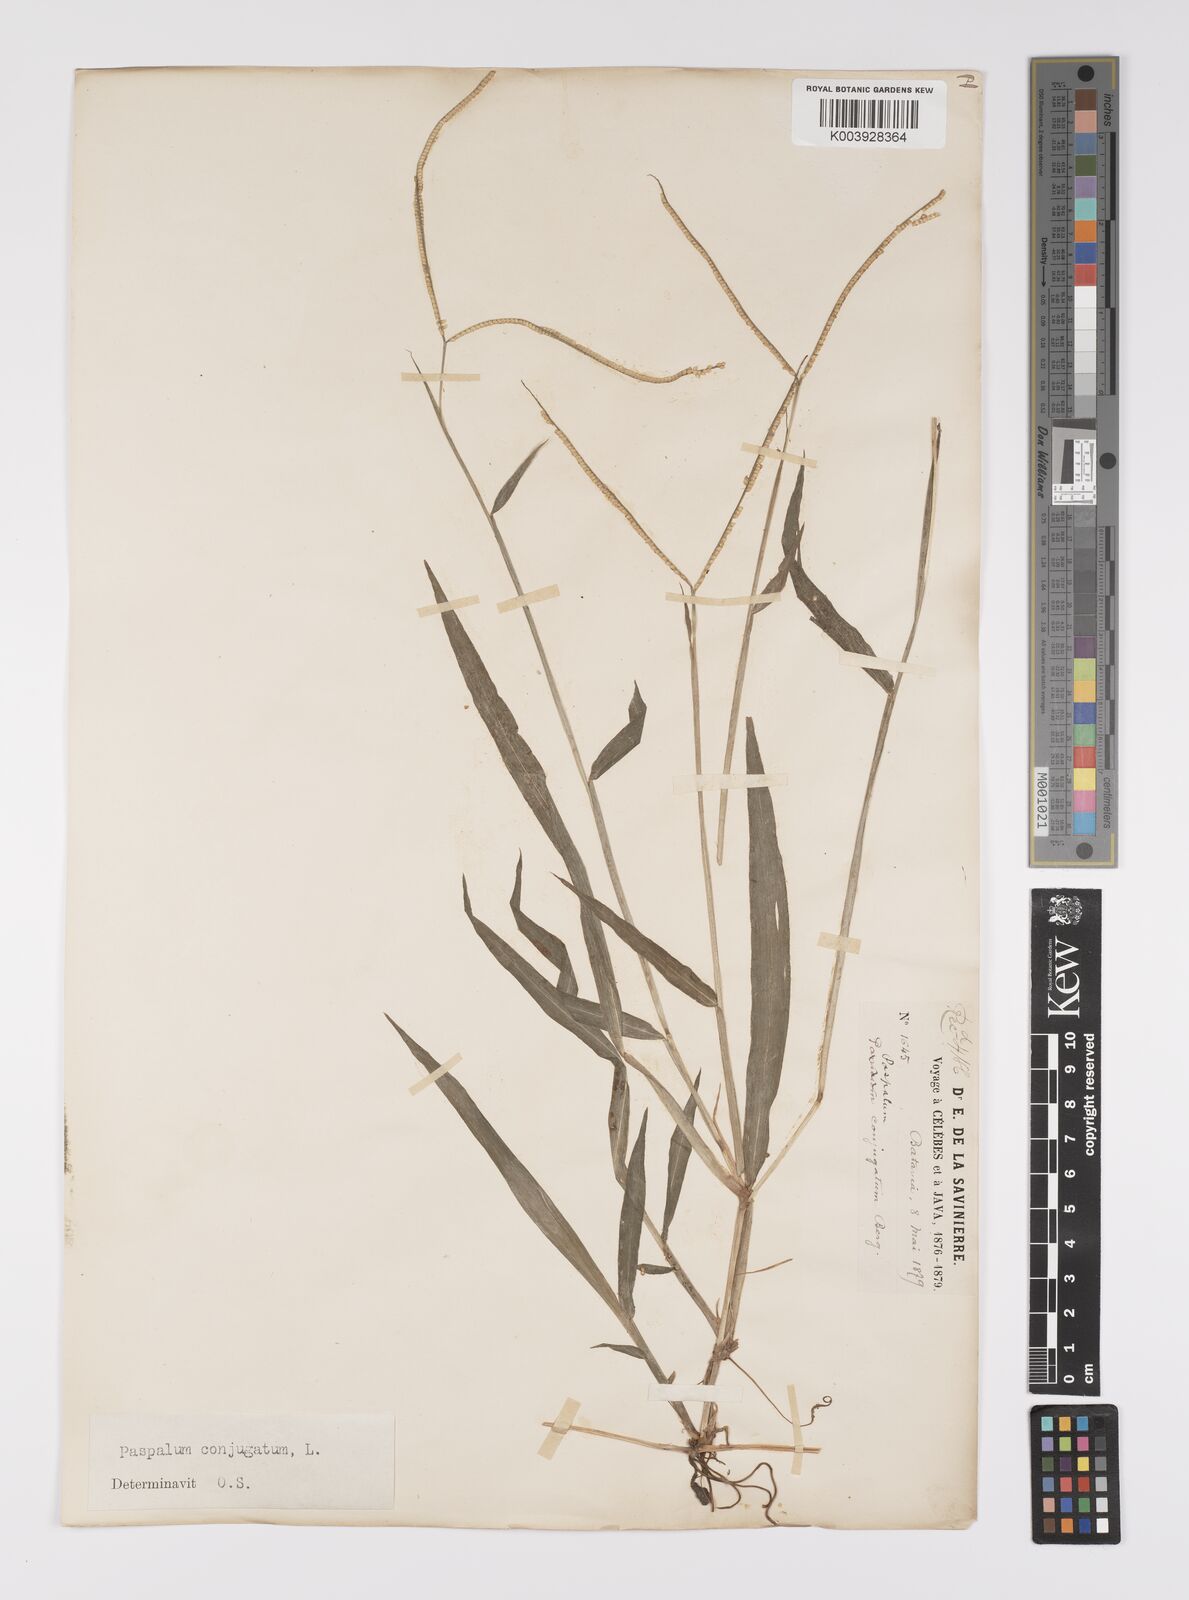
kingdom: Plantae
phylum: Tracheophyta
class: Liliopsida
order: Poales
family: Poaceae
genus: Paspalum
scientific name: Paspalum conjugatum
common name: Hilograss
